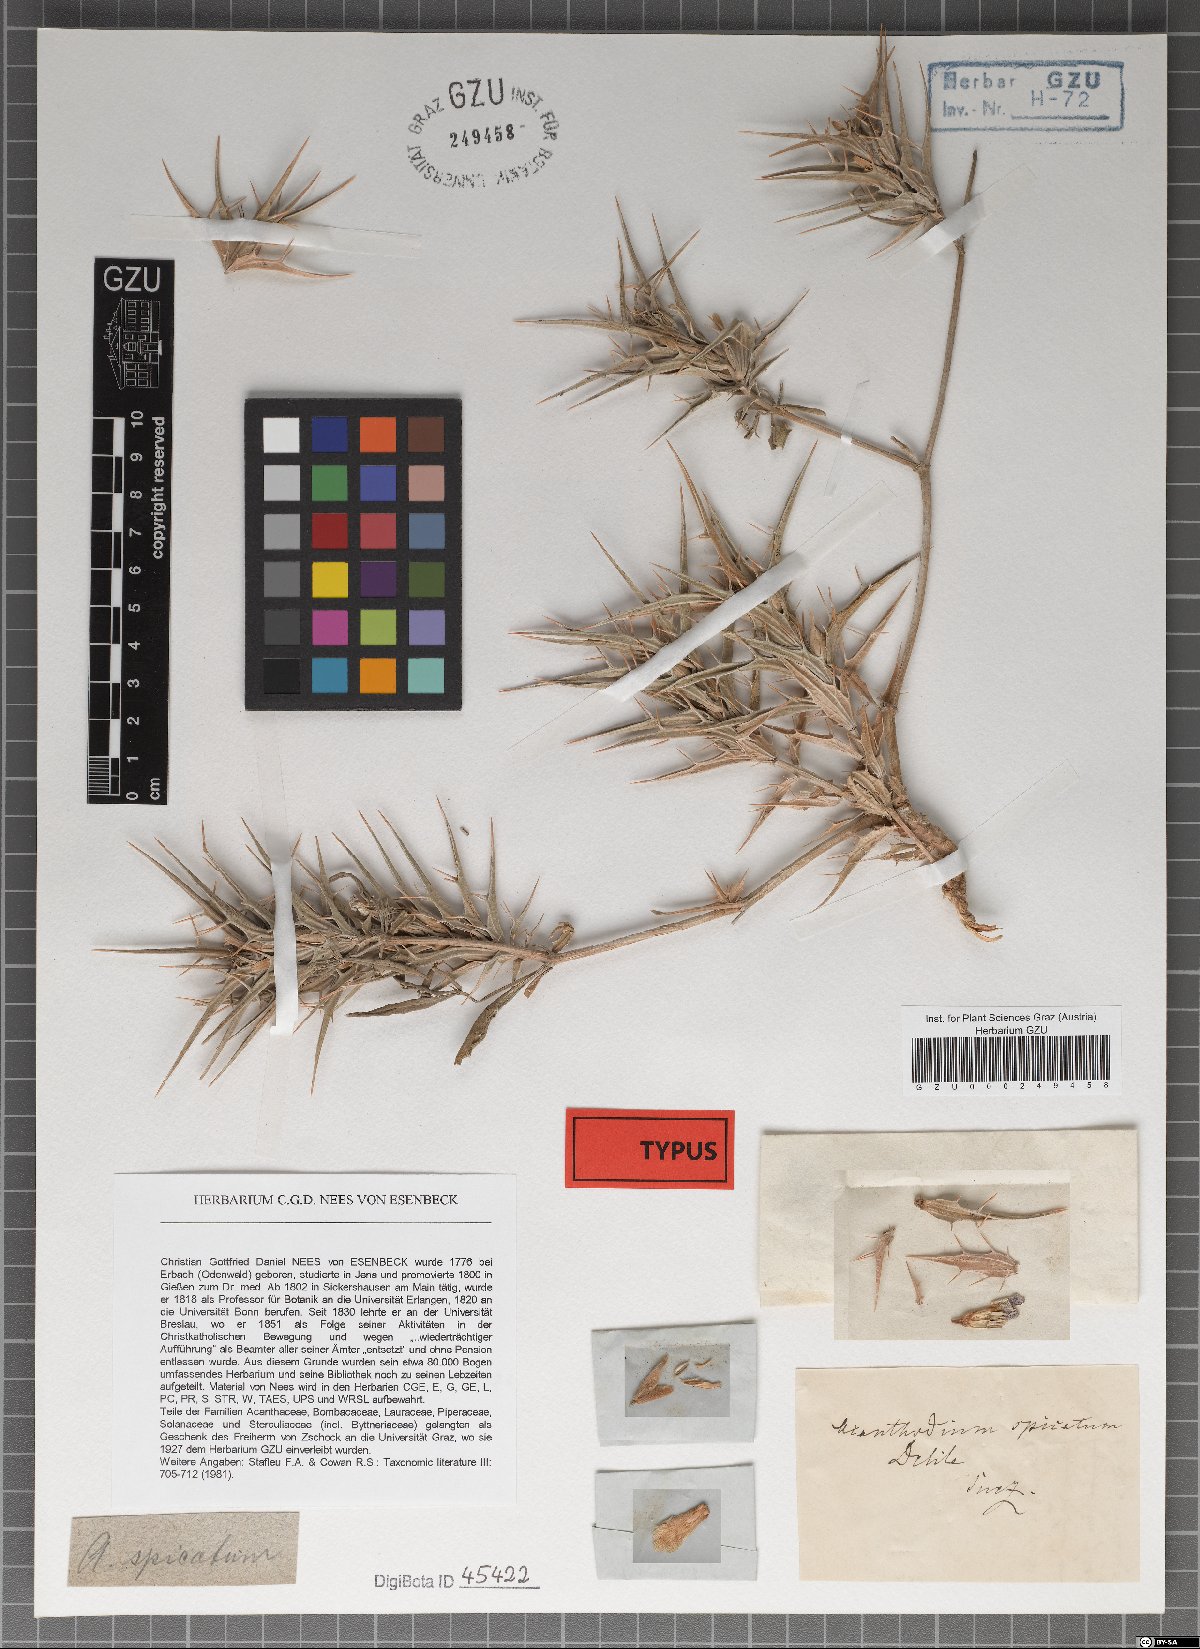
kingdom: Plantae
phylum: Tracheophyta
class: Magnoliopsida
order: Lamiales
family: Acanthaceae
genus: Blepharis
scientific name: Blepharis edulis
